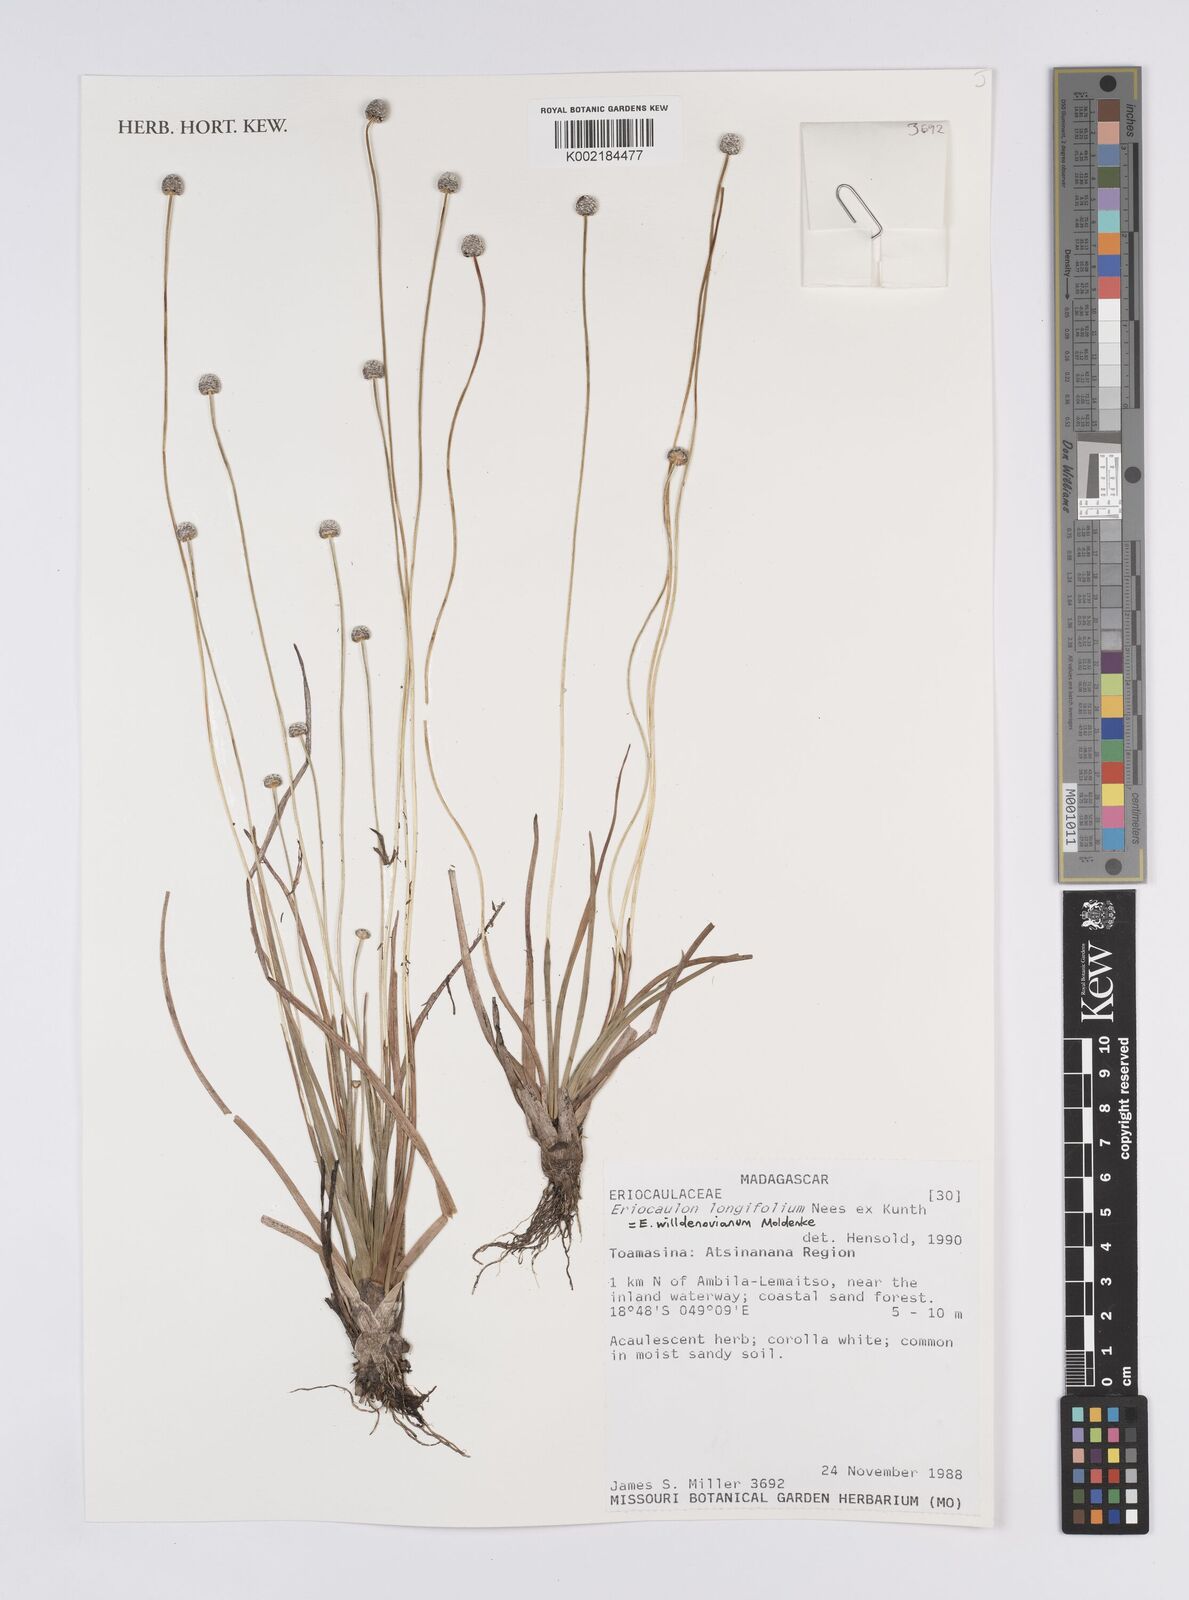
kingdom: Plantae
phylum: Tracheophyta
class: Liliopsida
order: Poales
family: Eriocaulaceae
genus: Eriocaulon
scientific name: Eriocaulon willdenovianum
